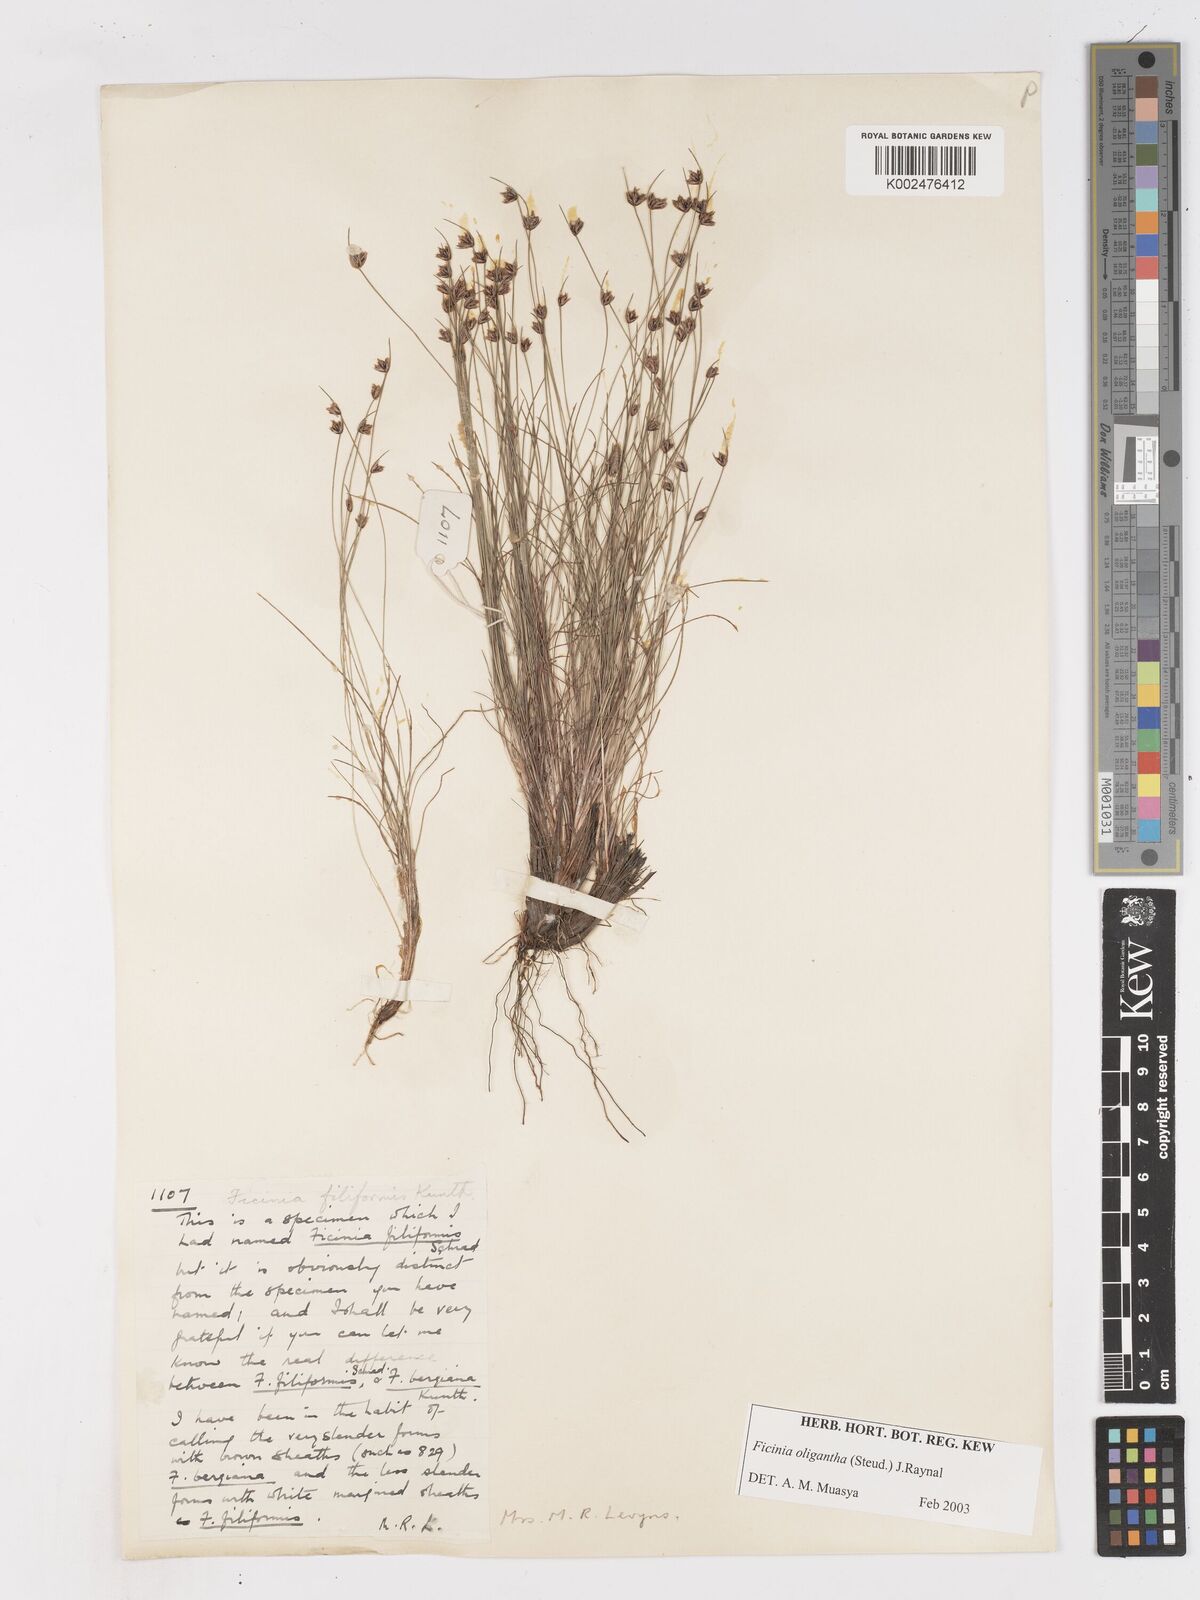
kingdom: Plantae
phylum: Tracheophyta
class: Liliopsida
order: Poales
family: Cyperaceae
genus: Ficinia
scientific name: Ficinia
